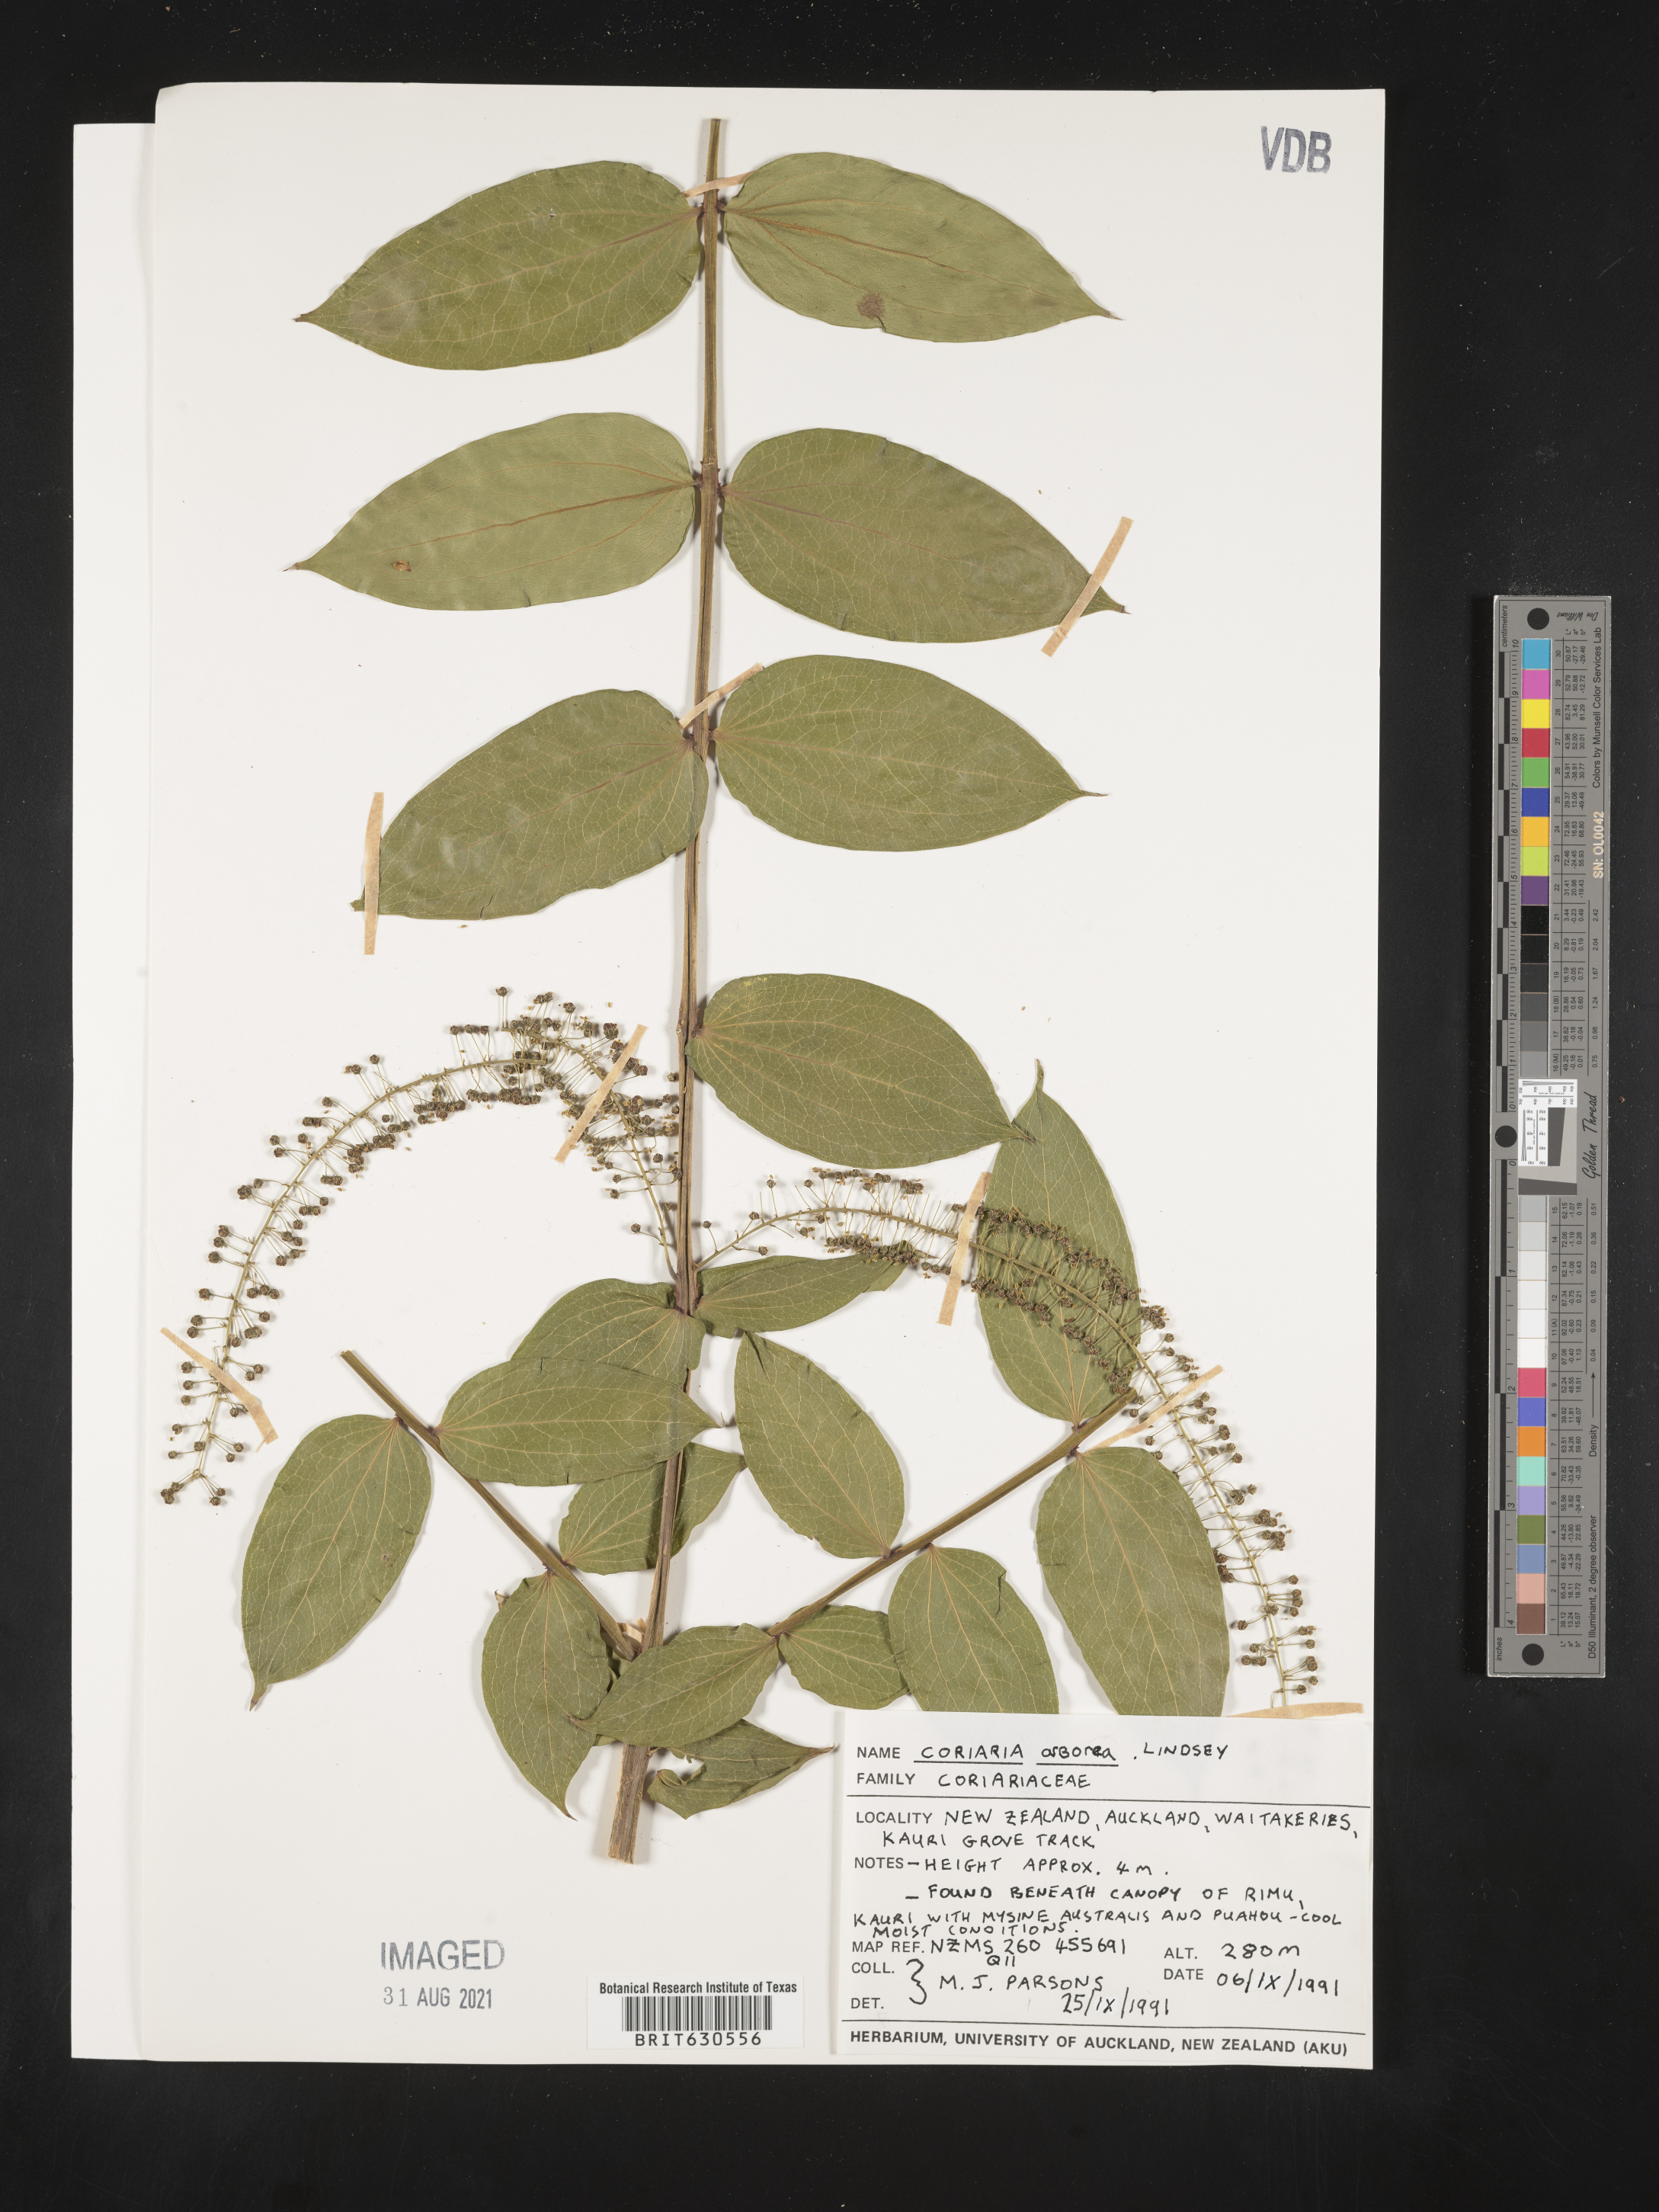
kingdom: Plantae
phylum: Tracheophyta
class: Magnoliopsida
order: Cucurbitales
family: Coriariaceae
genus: Coriaria
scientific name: Coriaria arborea
